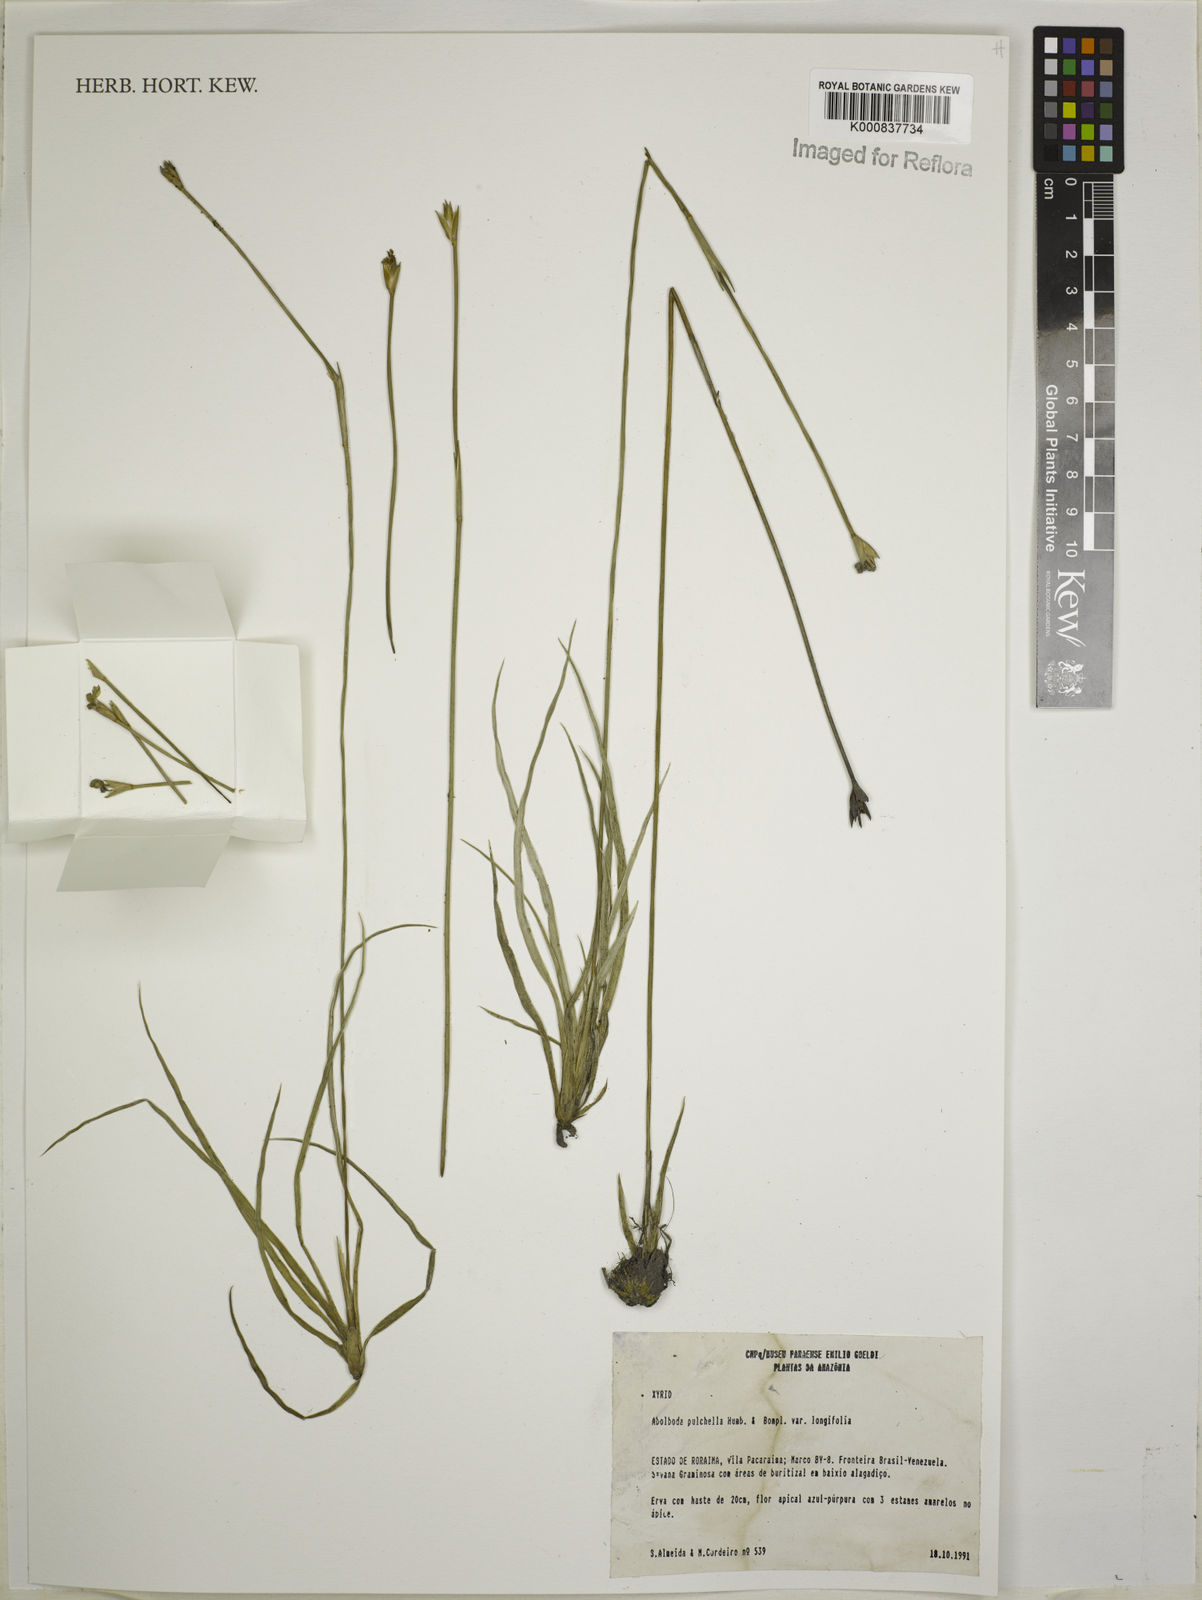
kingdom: Plantae
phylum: Tracheophyta
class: Liliopsida
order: Poales
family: Xyridaceae
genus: Abolboda
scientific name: Abolboda pulchella
